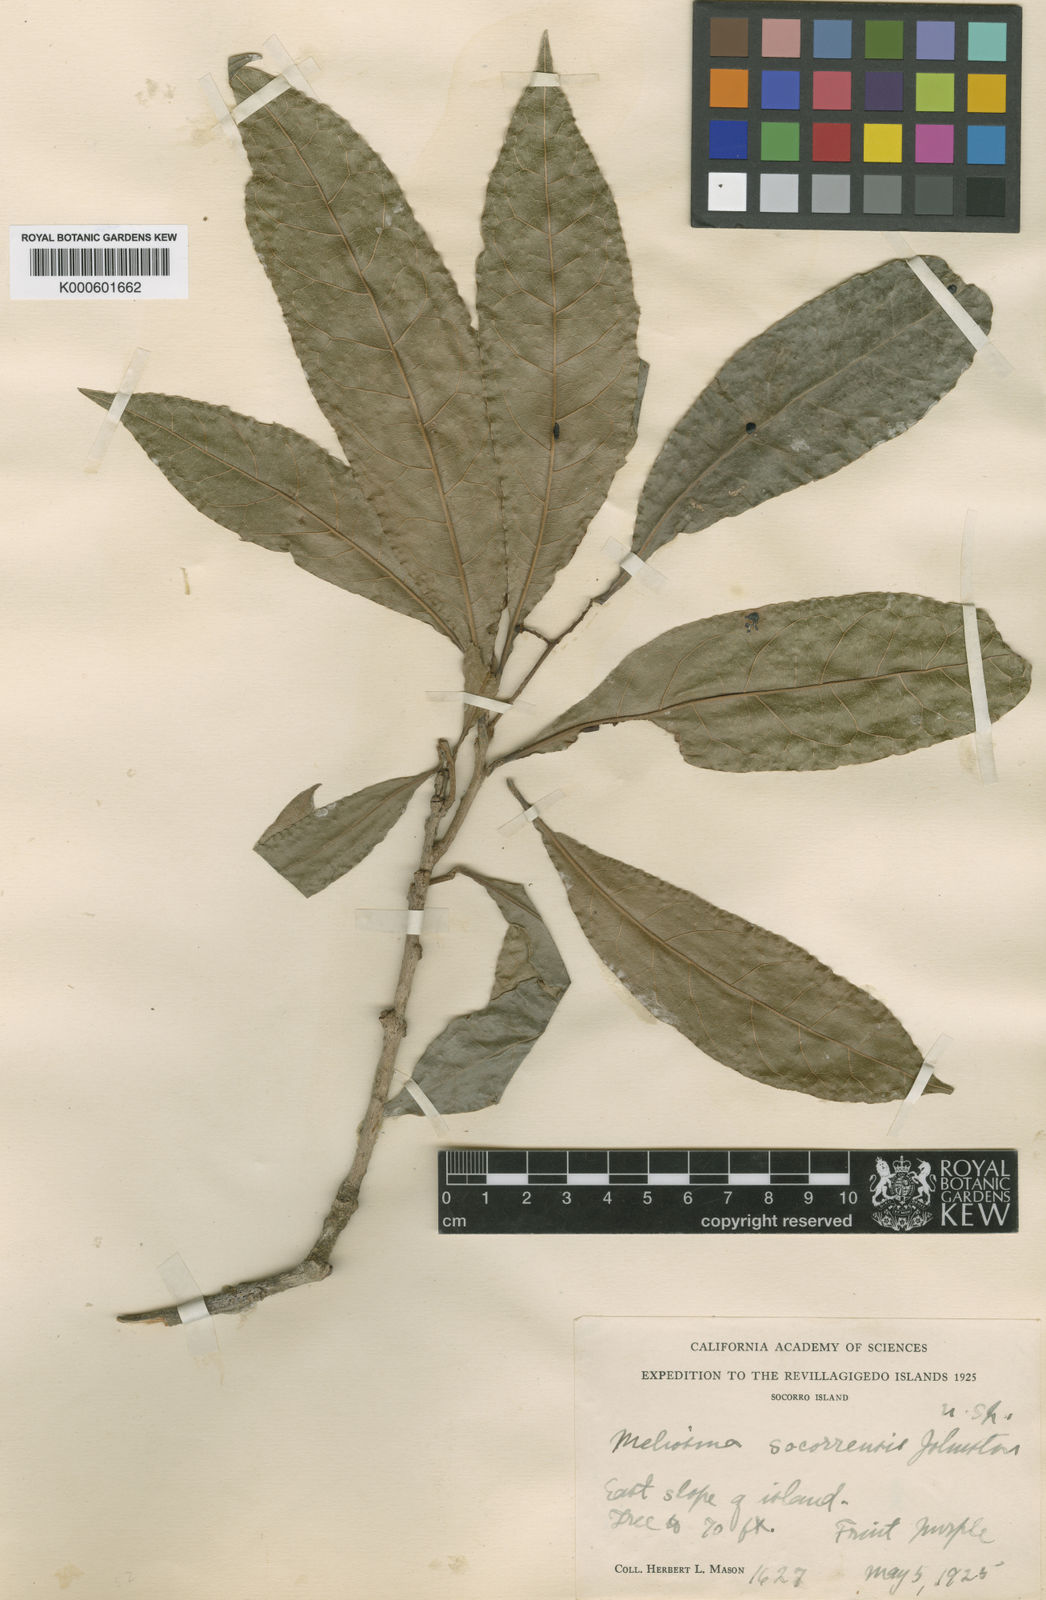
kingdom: Plantae
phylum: Tracheophyta
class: Magnoliopsida
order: Proteales
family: Sabiaceae
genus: Meliosma
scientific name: Meliosma
